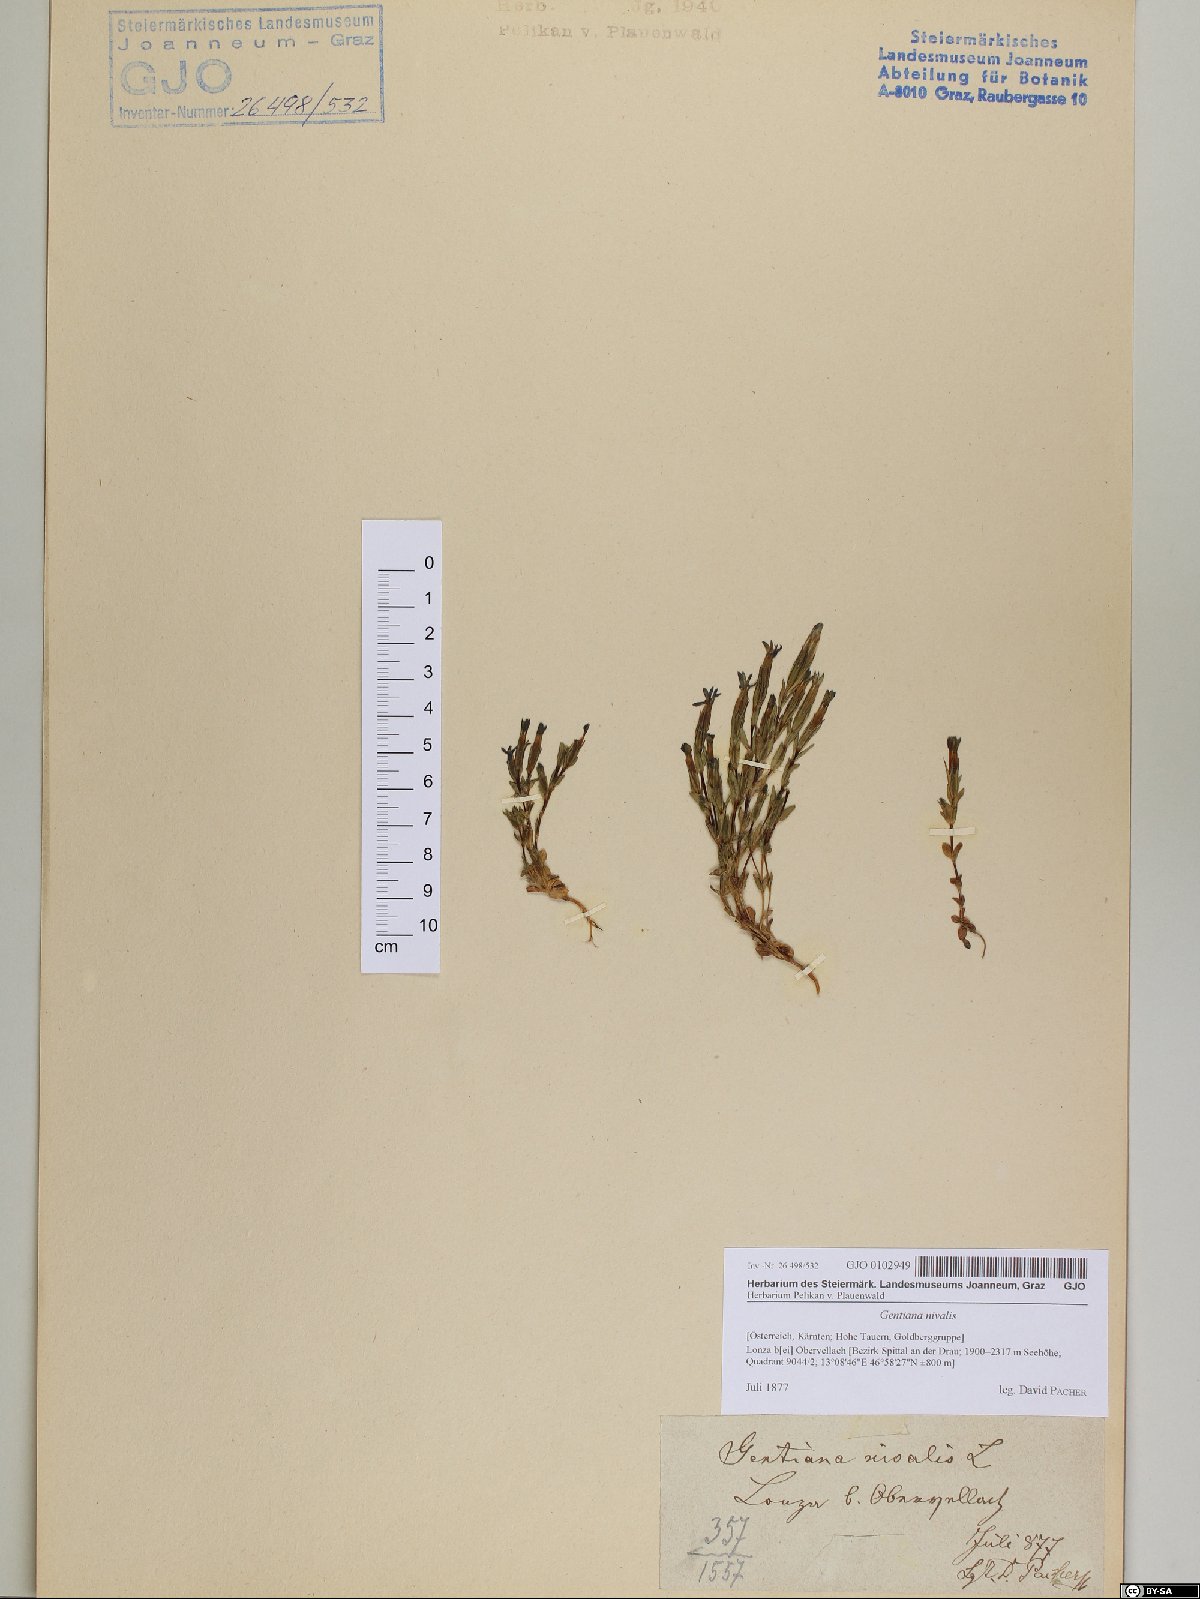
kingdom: Plantae
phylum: Tracheophyta
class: Magnoliopsida
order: Gentianales
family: Gentianaceae
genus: Gentiana
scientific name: Gentiana nivalis
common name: Alpine gentian
